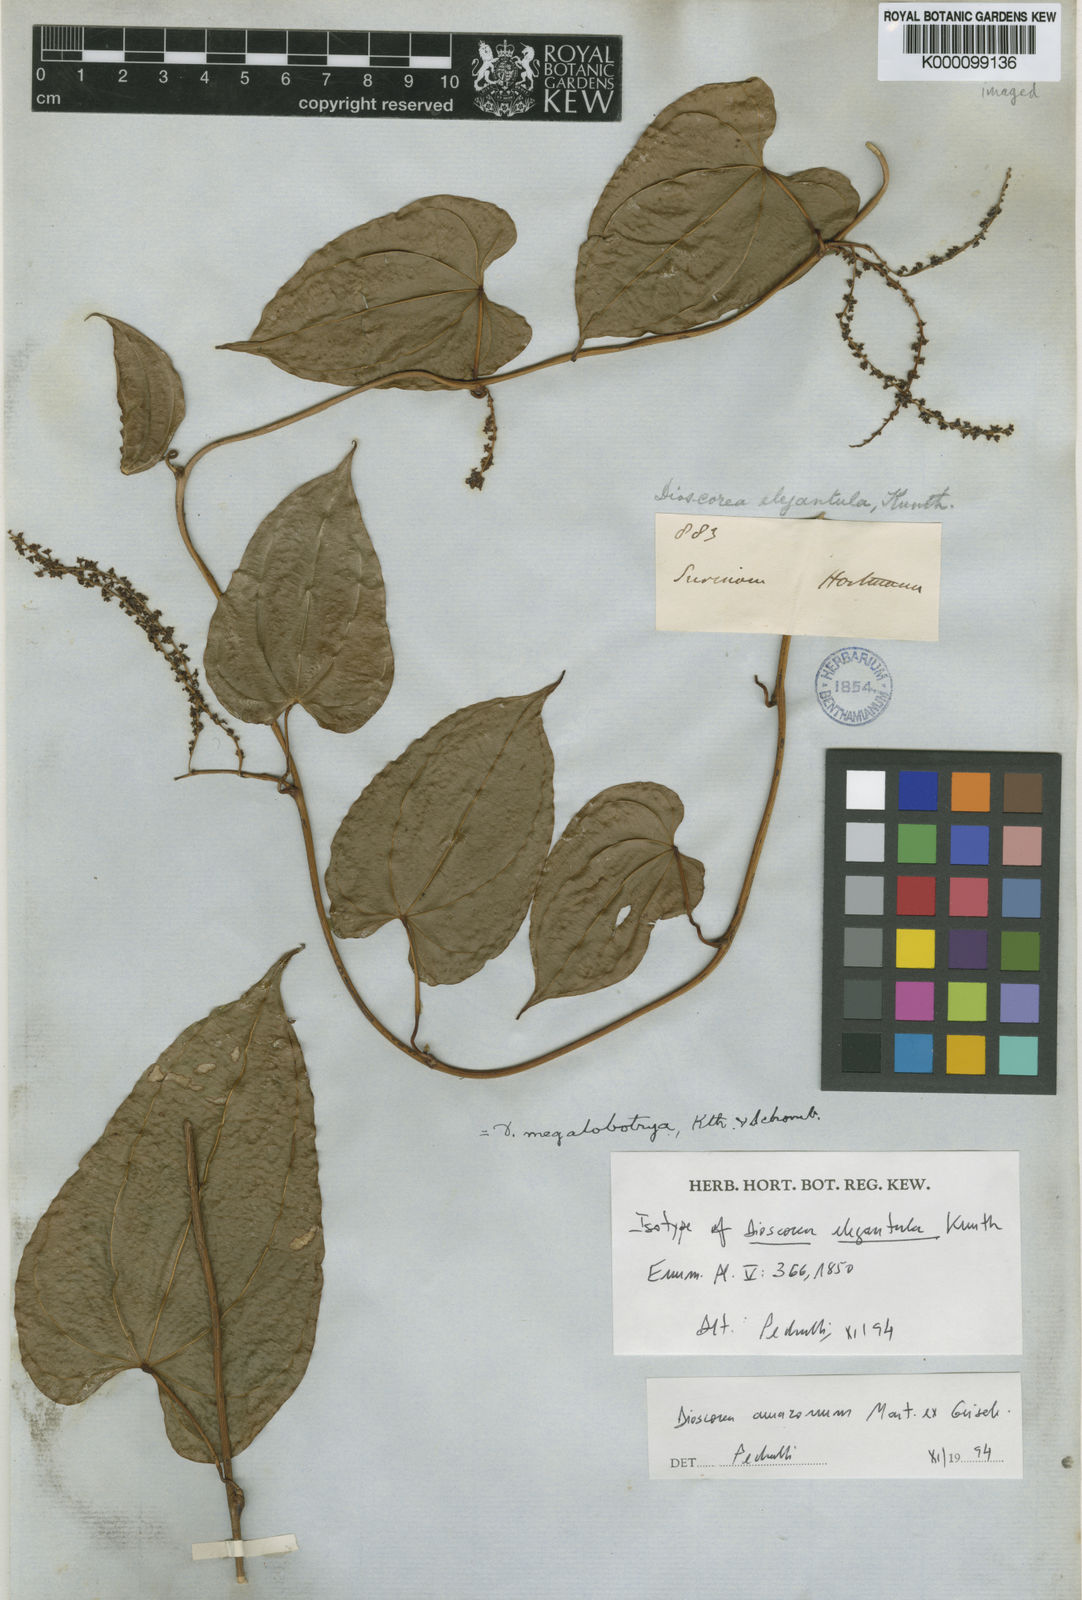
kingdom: Plantae
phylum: Tracheophyta
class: Liliopsida
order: Dioscoreales
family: Dioscoreaceae
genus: Dioscorea
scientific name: Dioscorea amazonum
